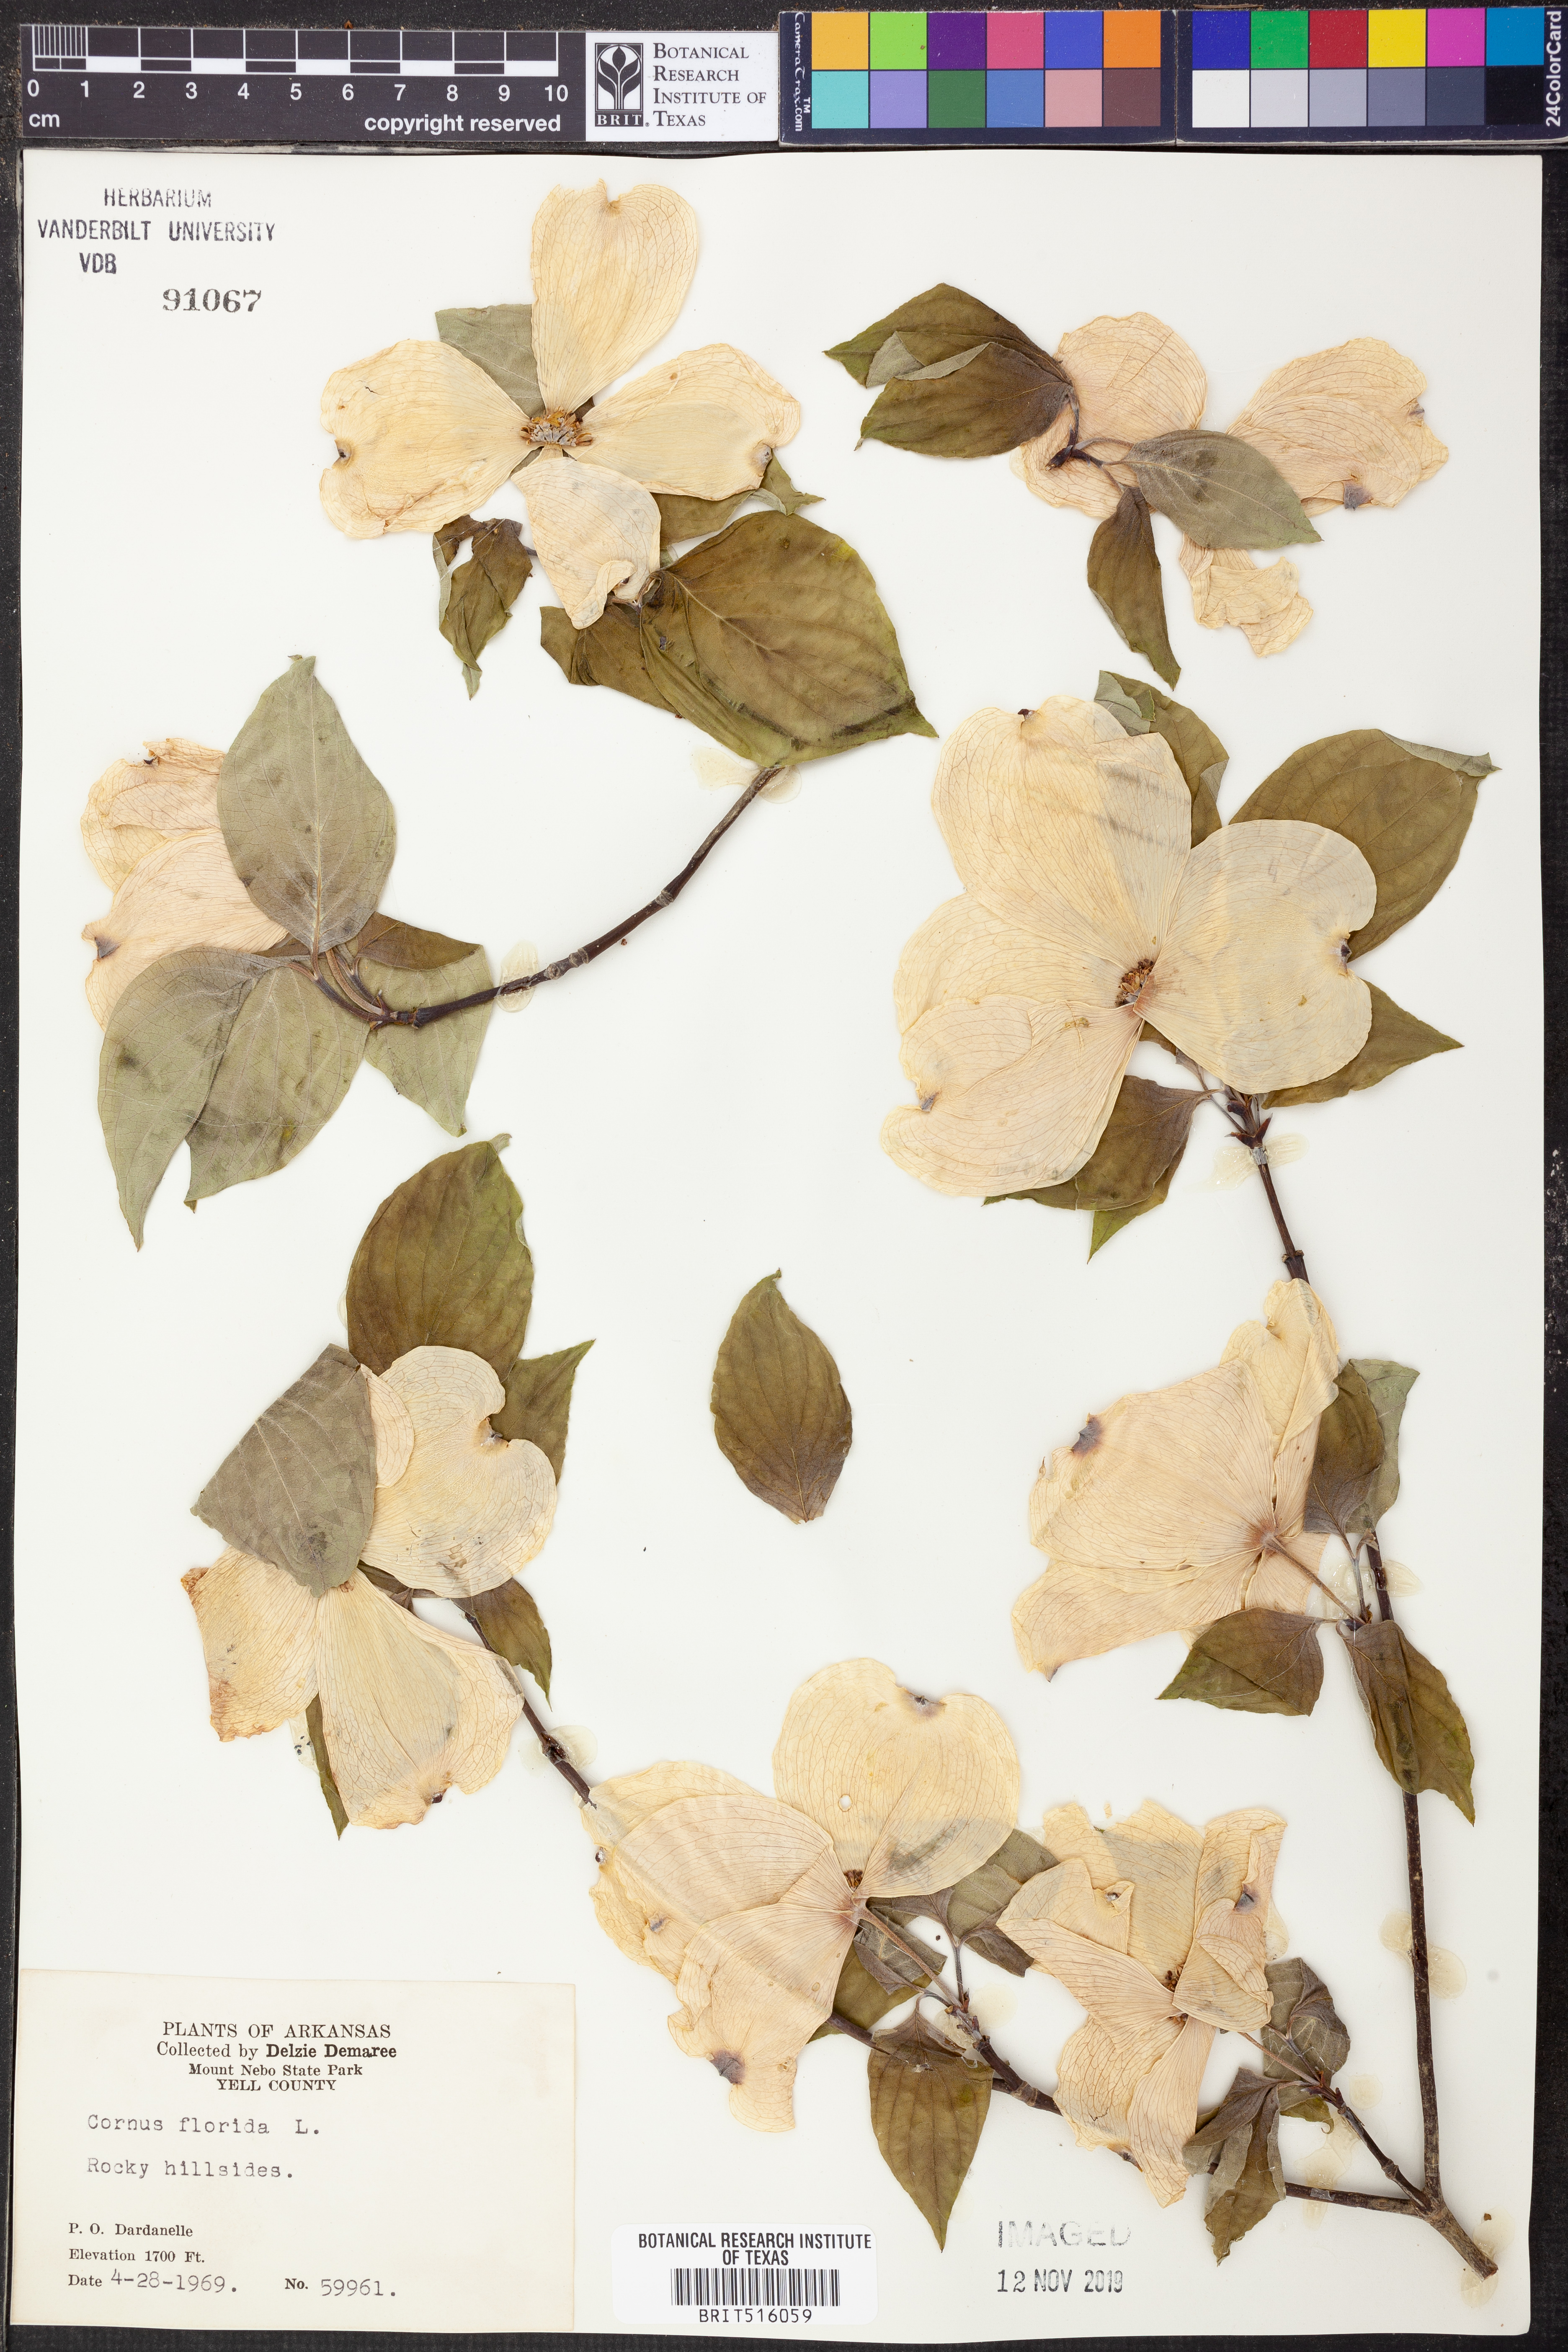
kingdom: Plantae
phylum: Tracheophyta
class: Magnoliopsida
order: Cornales
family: Cornaceae
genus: Cornus
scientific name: Cornus florida
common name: Flowering dogwood
